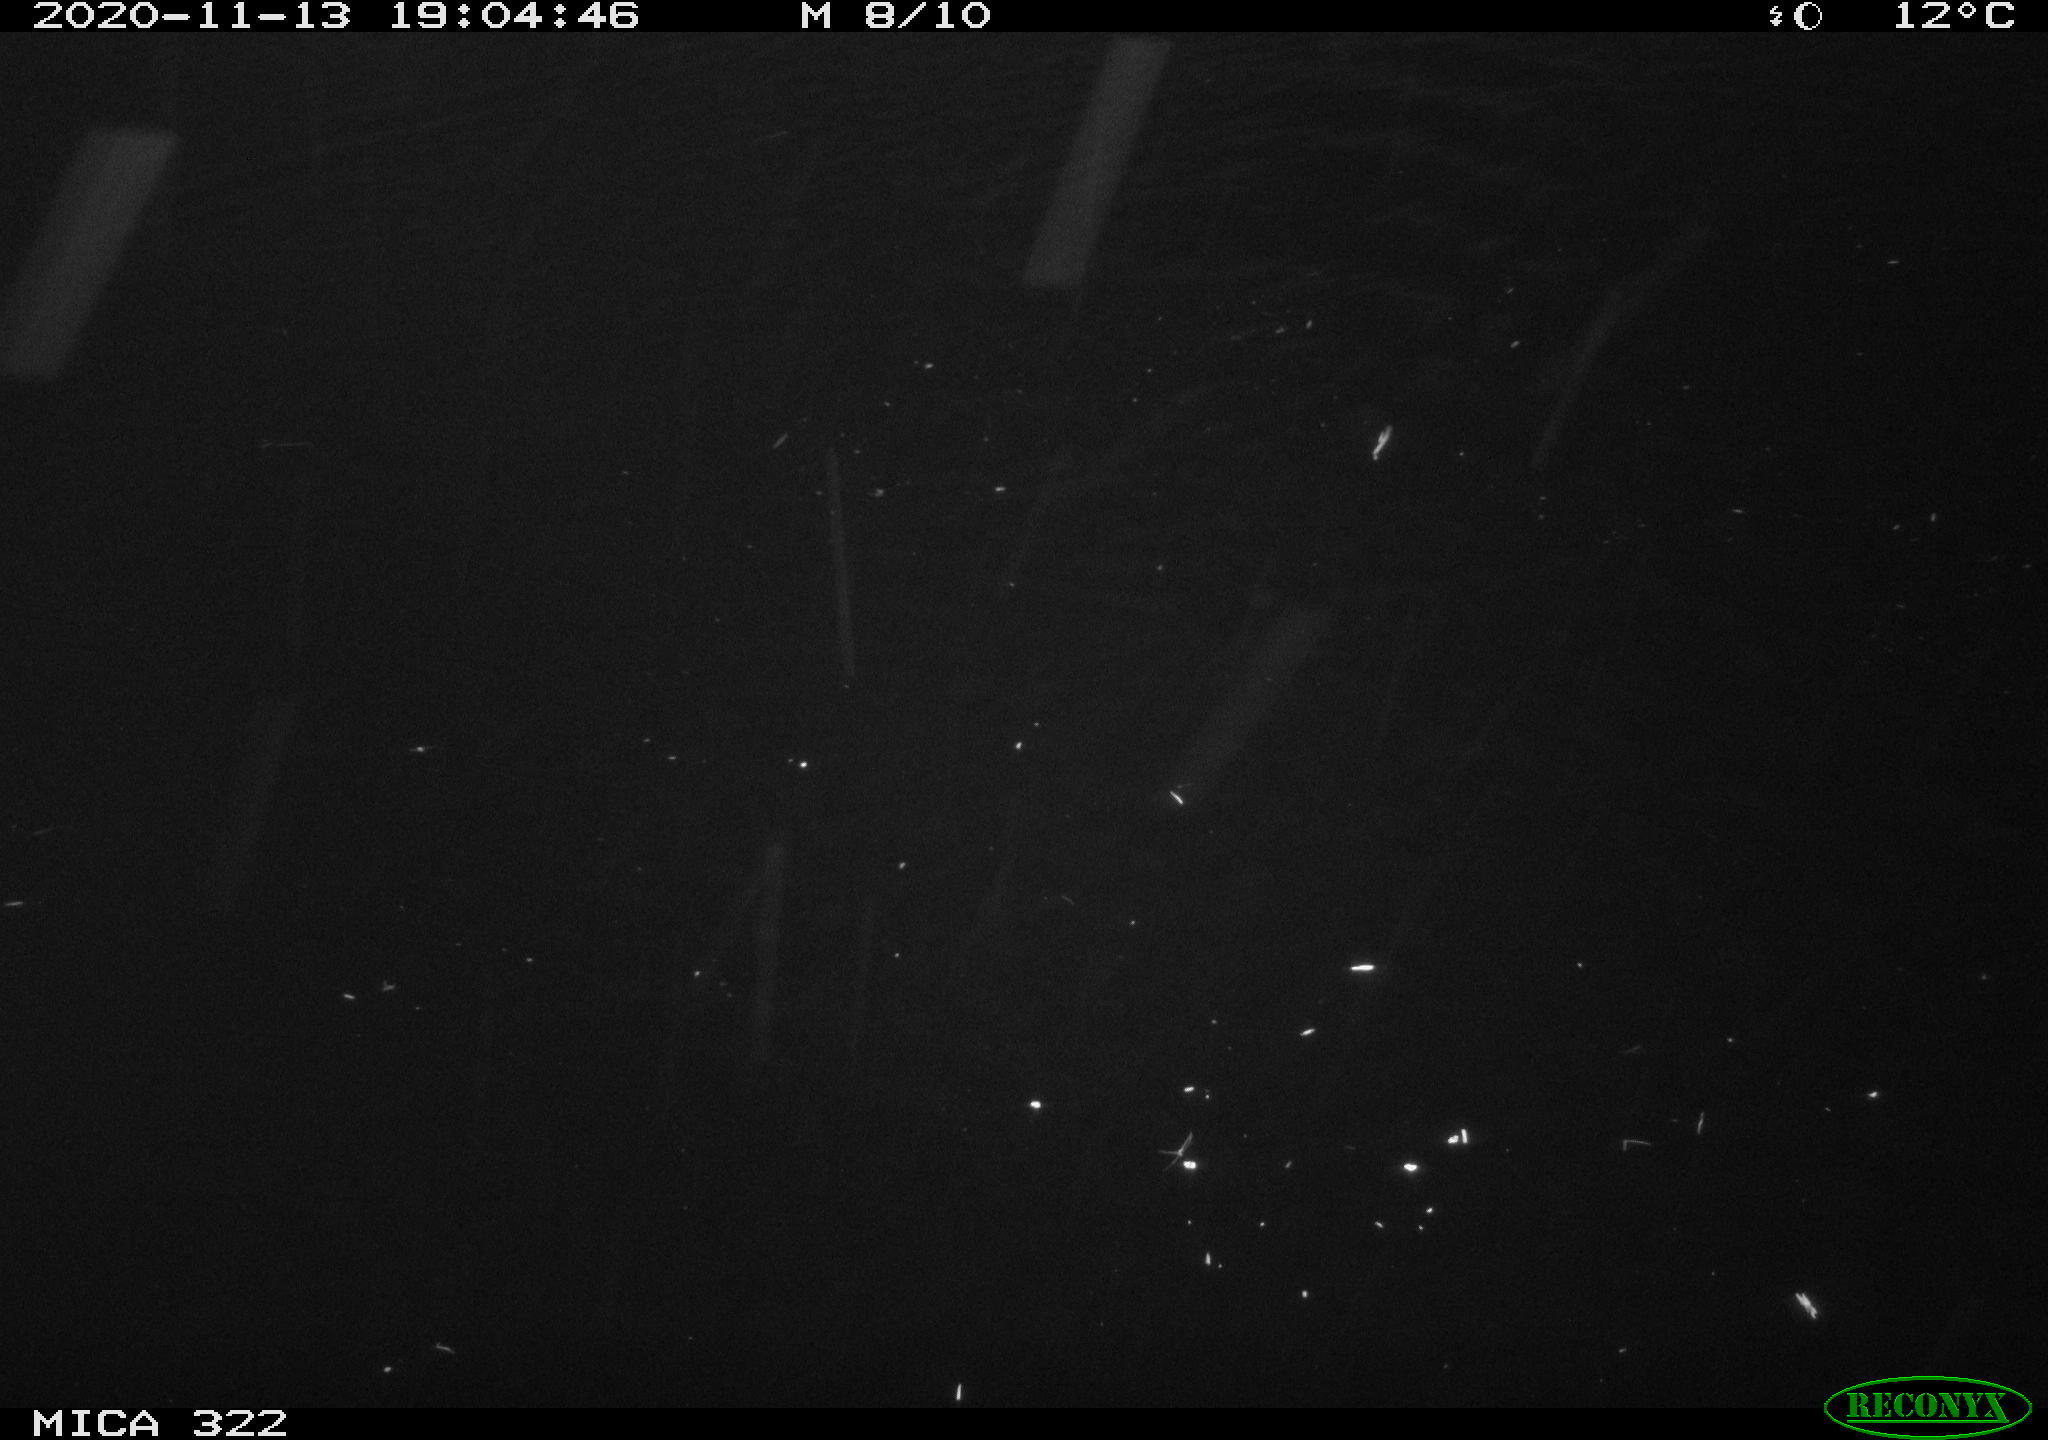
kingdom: Animalia
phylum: Chordata
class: Mammalia
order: Rodentia
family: Muridae
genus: Rattus
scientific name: Rattus norvegicus
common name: Brown rat
